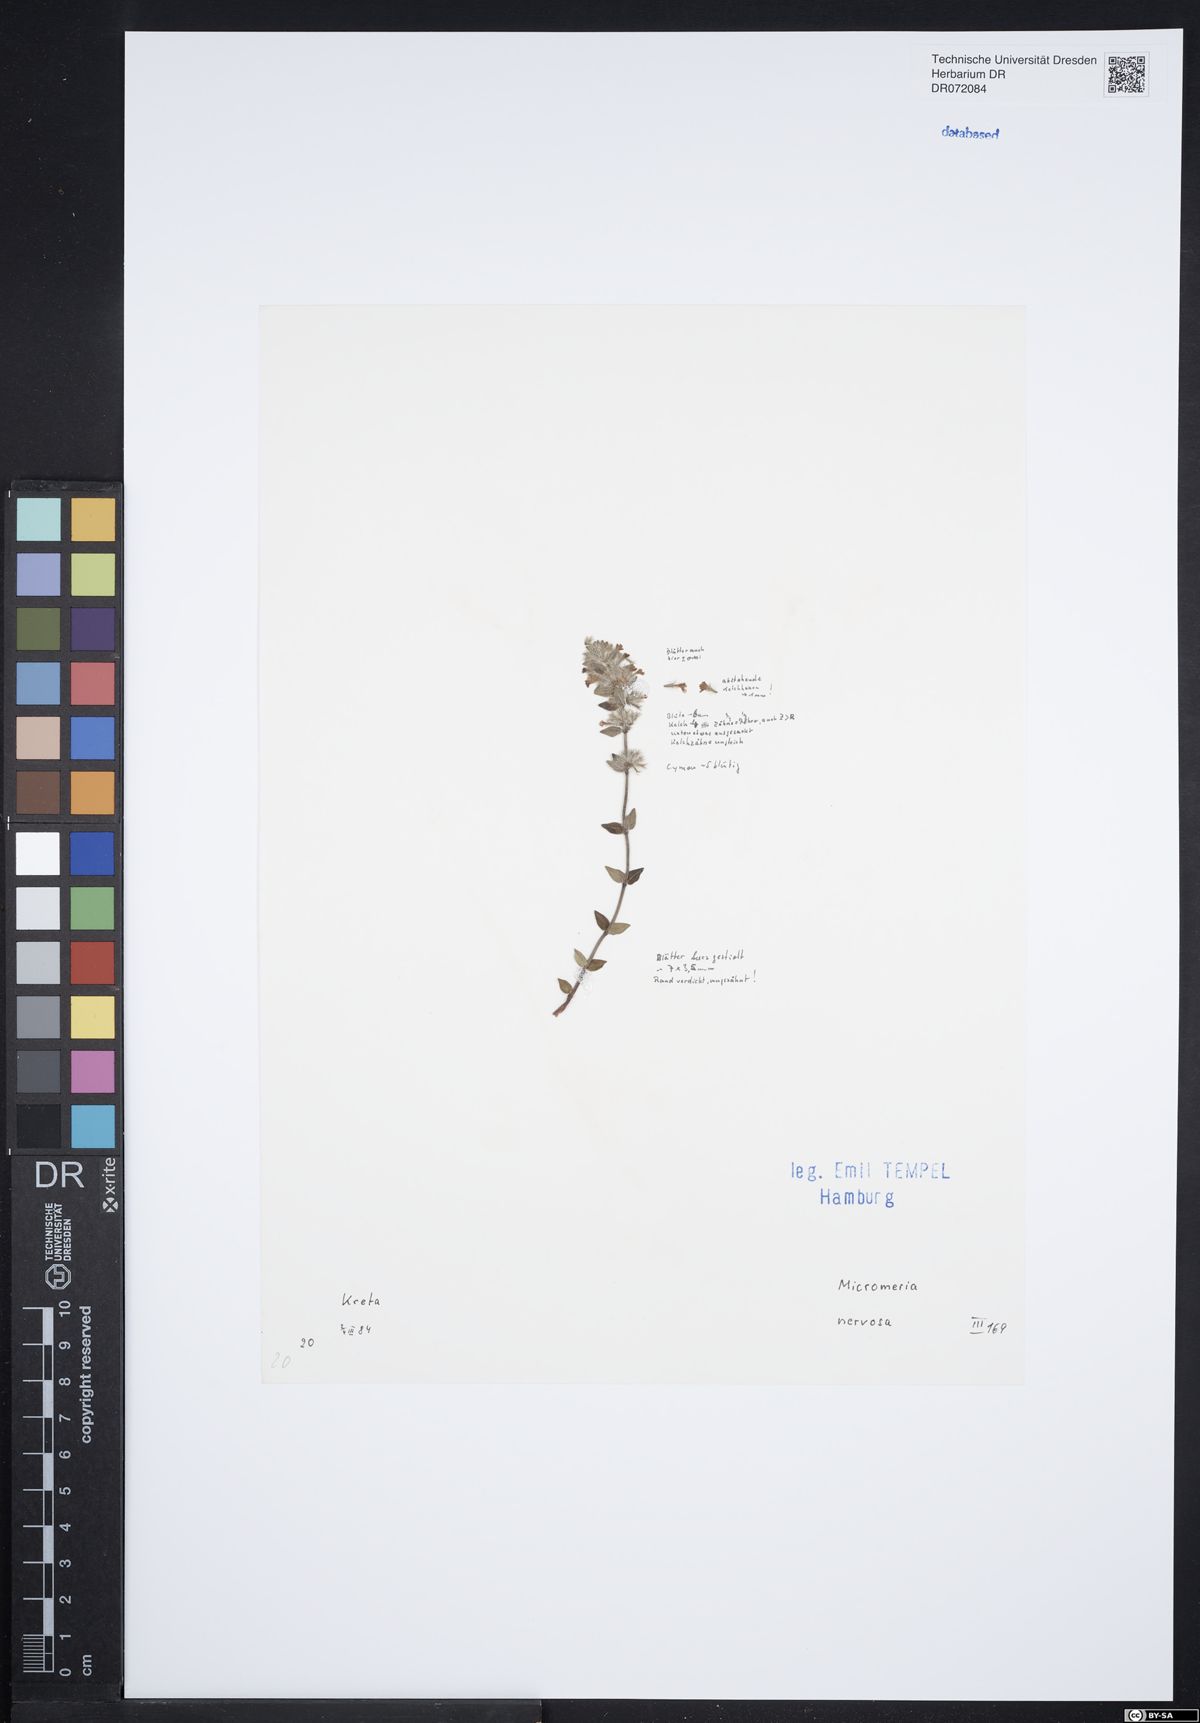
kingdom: Plantae
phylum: Tracheophyta
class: Magnoliopsida
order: Lamiales
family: Lamiaceae
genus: Micromeria
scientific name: Micromeria nervosa
